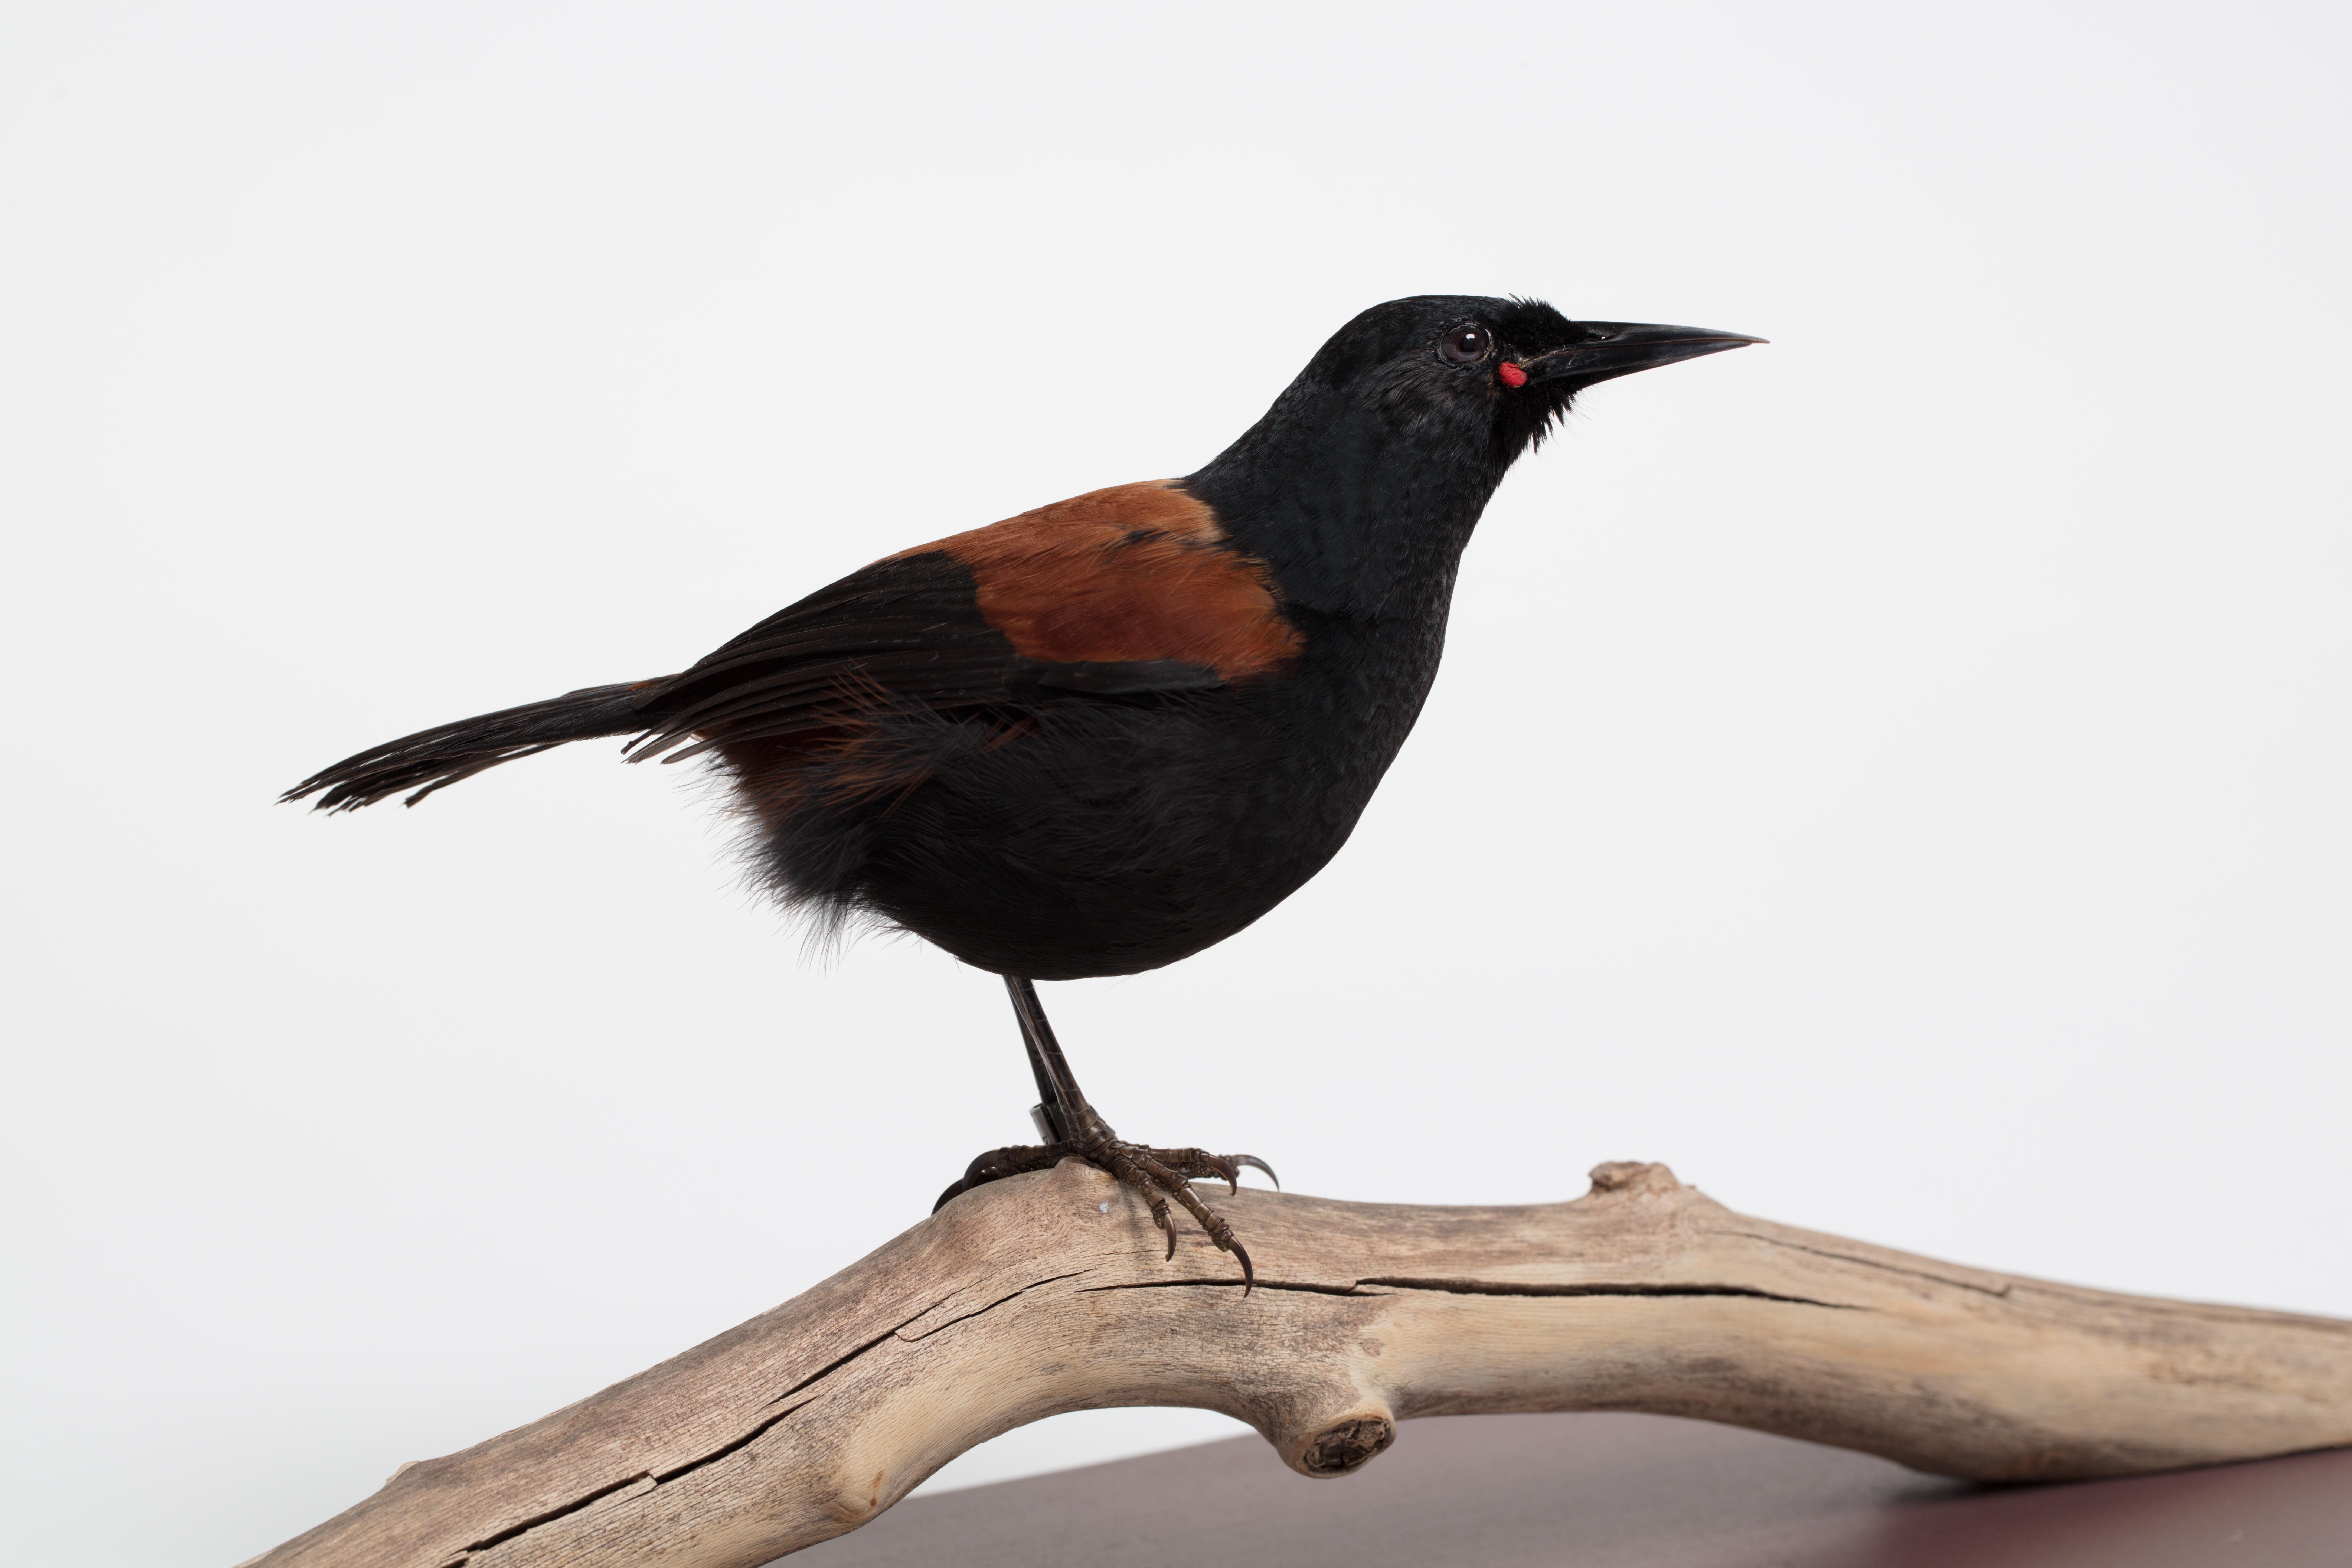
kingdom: Animalia
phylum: Chordata
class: Aves
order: Passeriformes
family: Callaeatidae
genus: Philesturnus
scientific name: Philesturnus carunculatus
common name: South island saddleback
